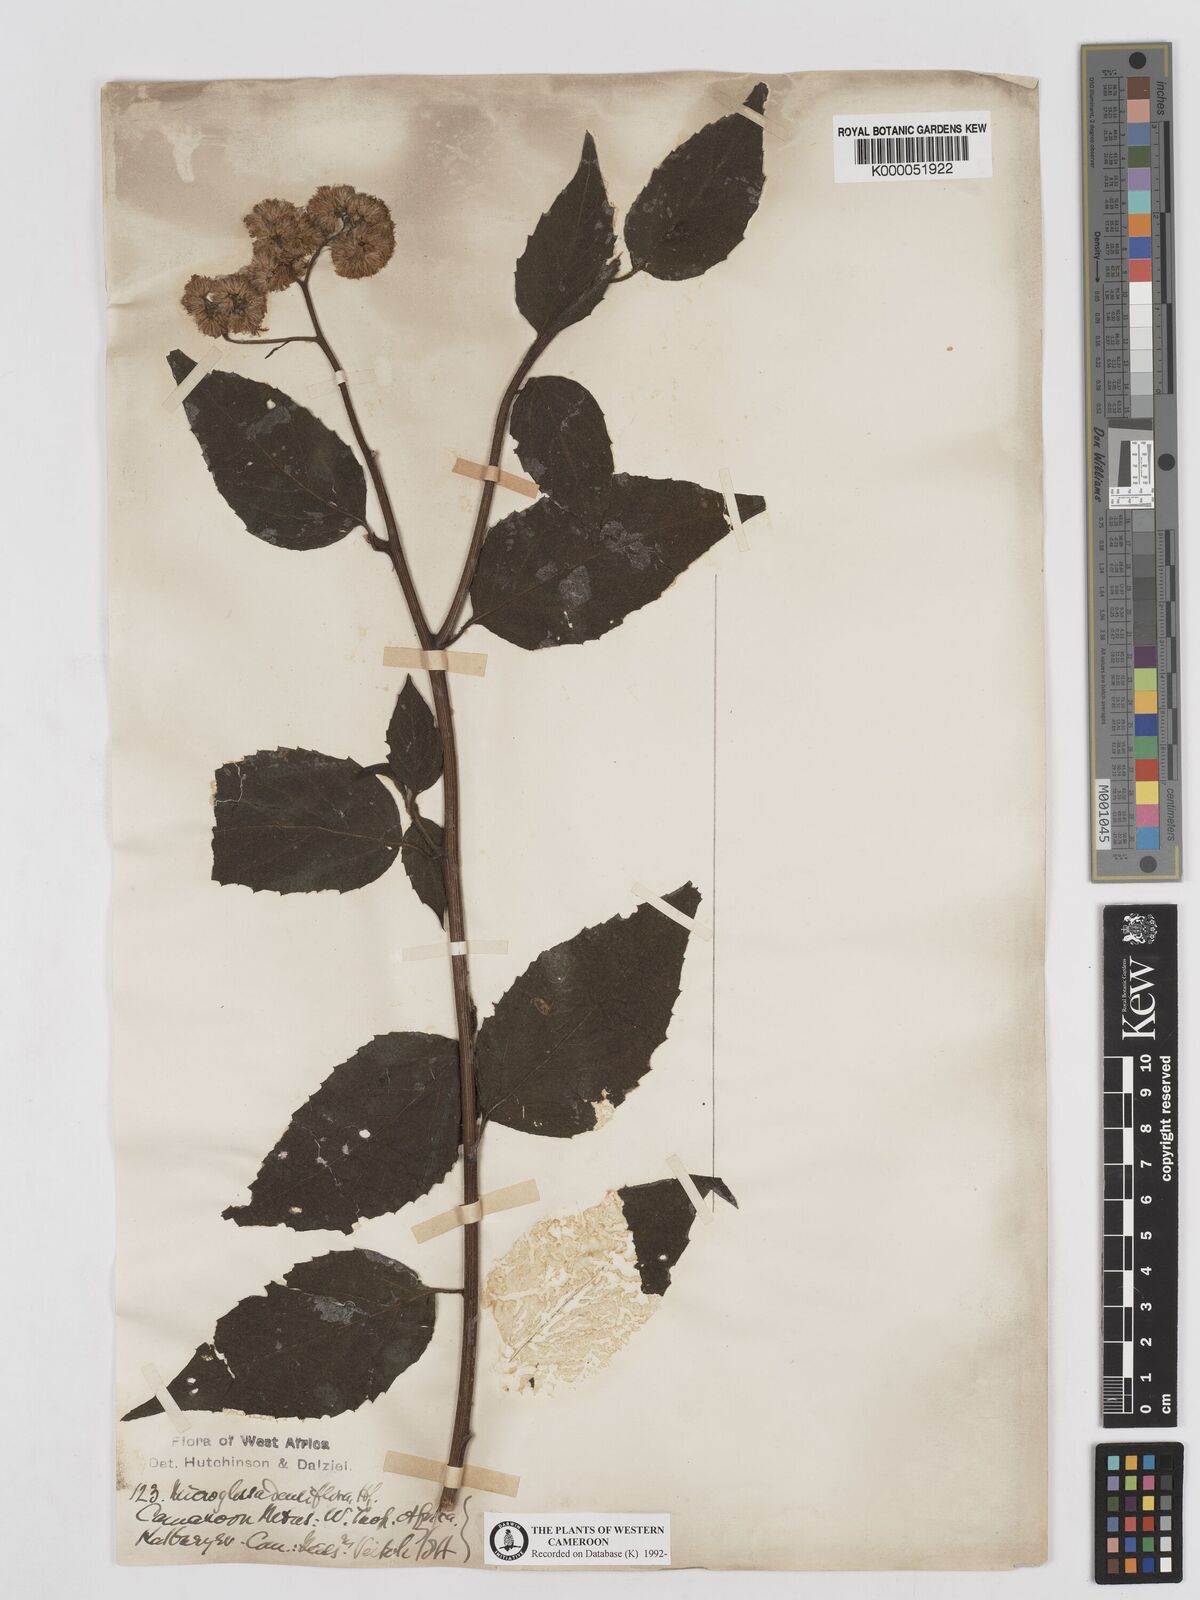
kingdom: Plantae
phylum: Tracheophyta
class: Magnoliopsida
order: Asterales
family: Asteraceae
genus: Microglossa
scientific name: Microglossa densiflora
